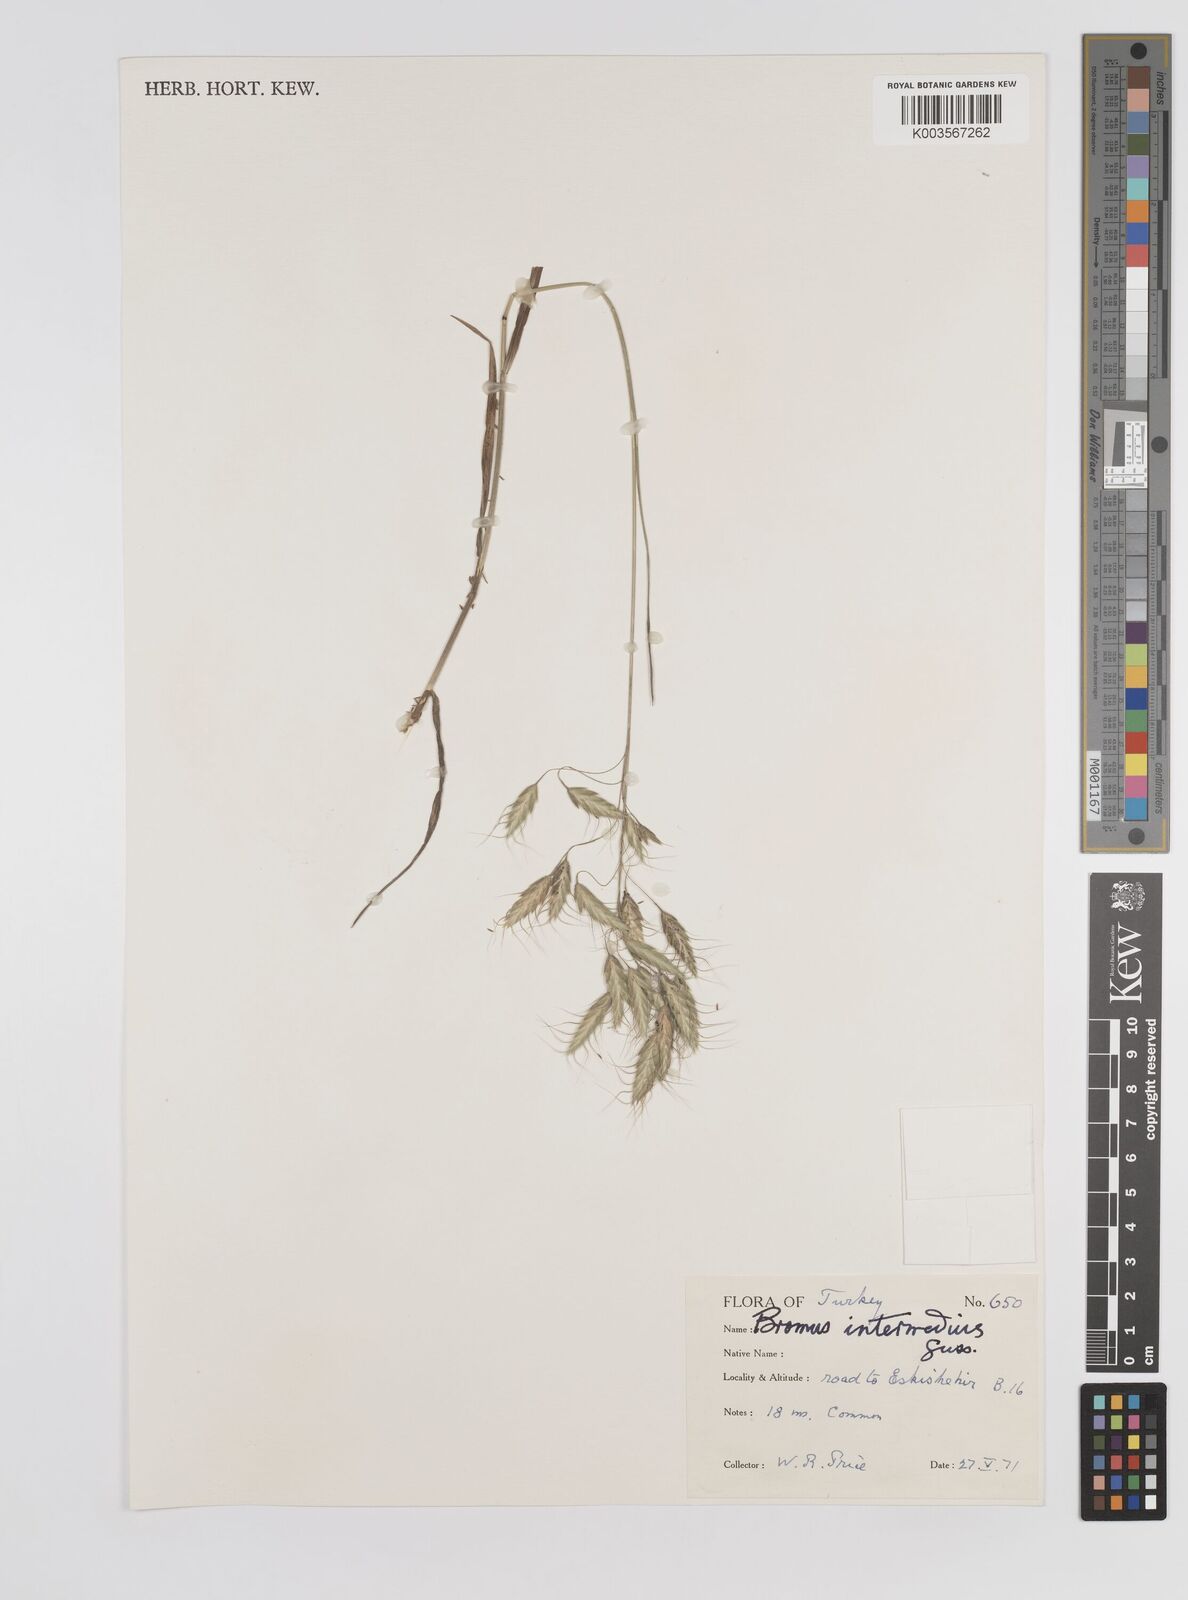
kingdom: Plantae
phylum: Tracheophyta
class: Liliopsida
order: Poales
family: Poaceae
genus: Bromus
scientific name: Bromus intermedius
